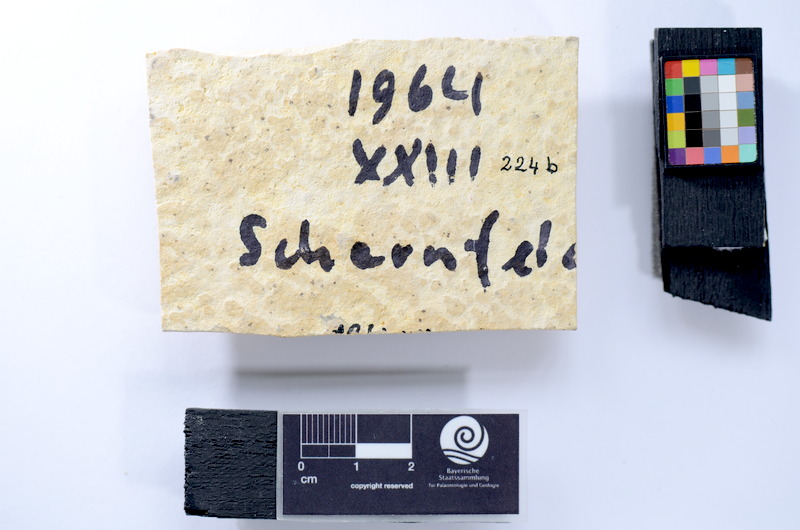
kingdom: Animalia
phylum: Chordata
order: Salmoniformes
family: Orthogonikleithridae
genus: Leptolepides
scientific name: Leptolepides
